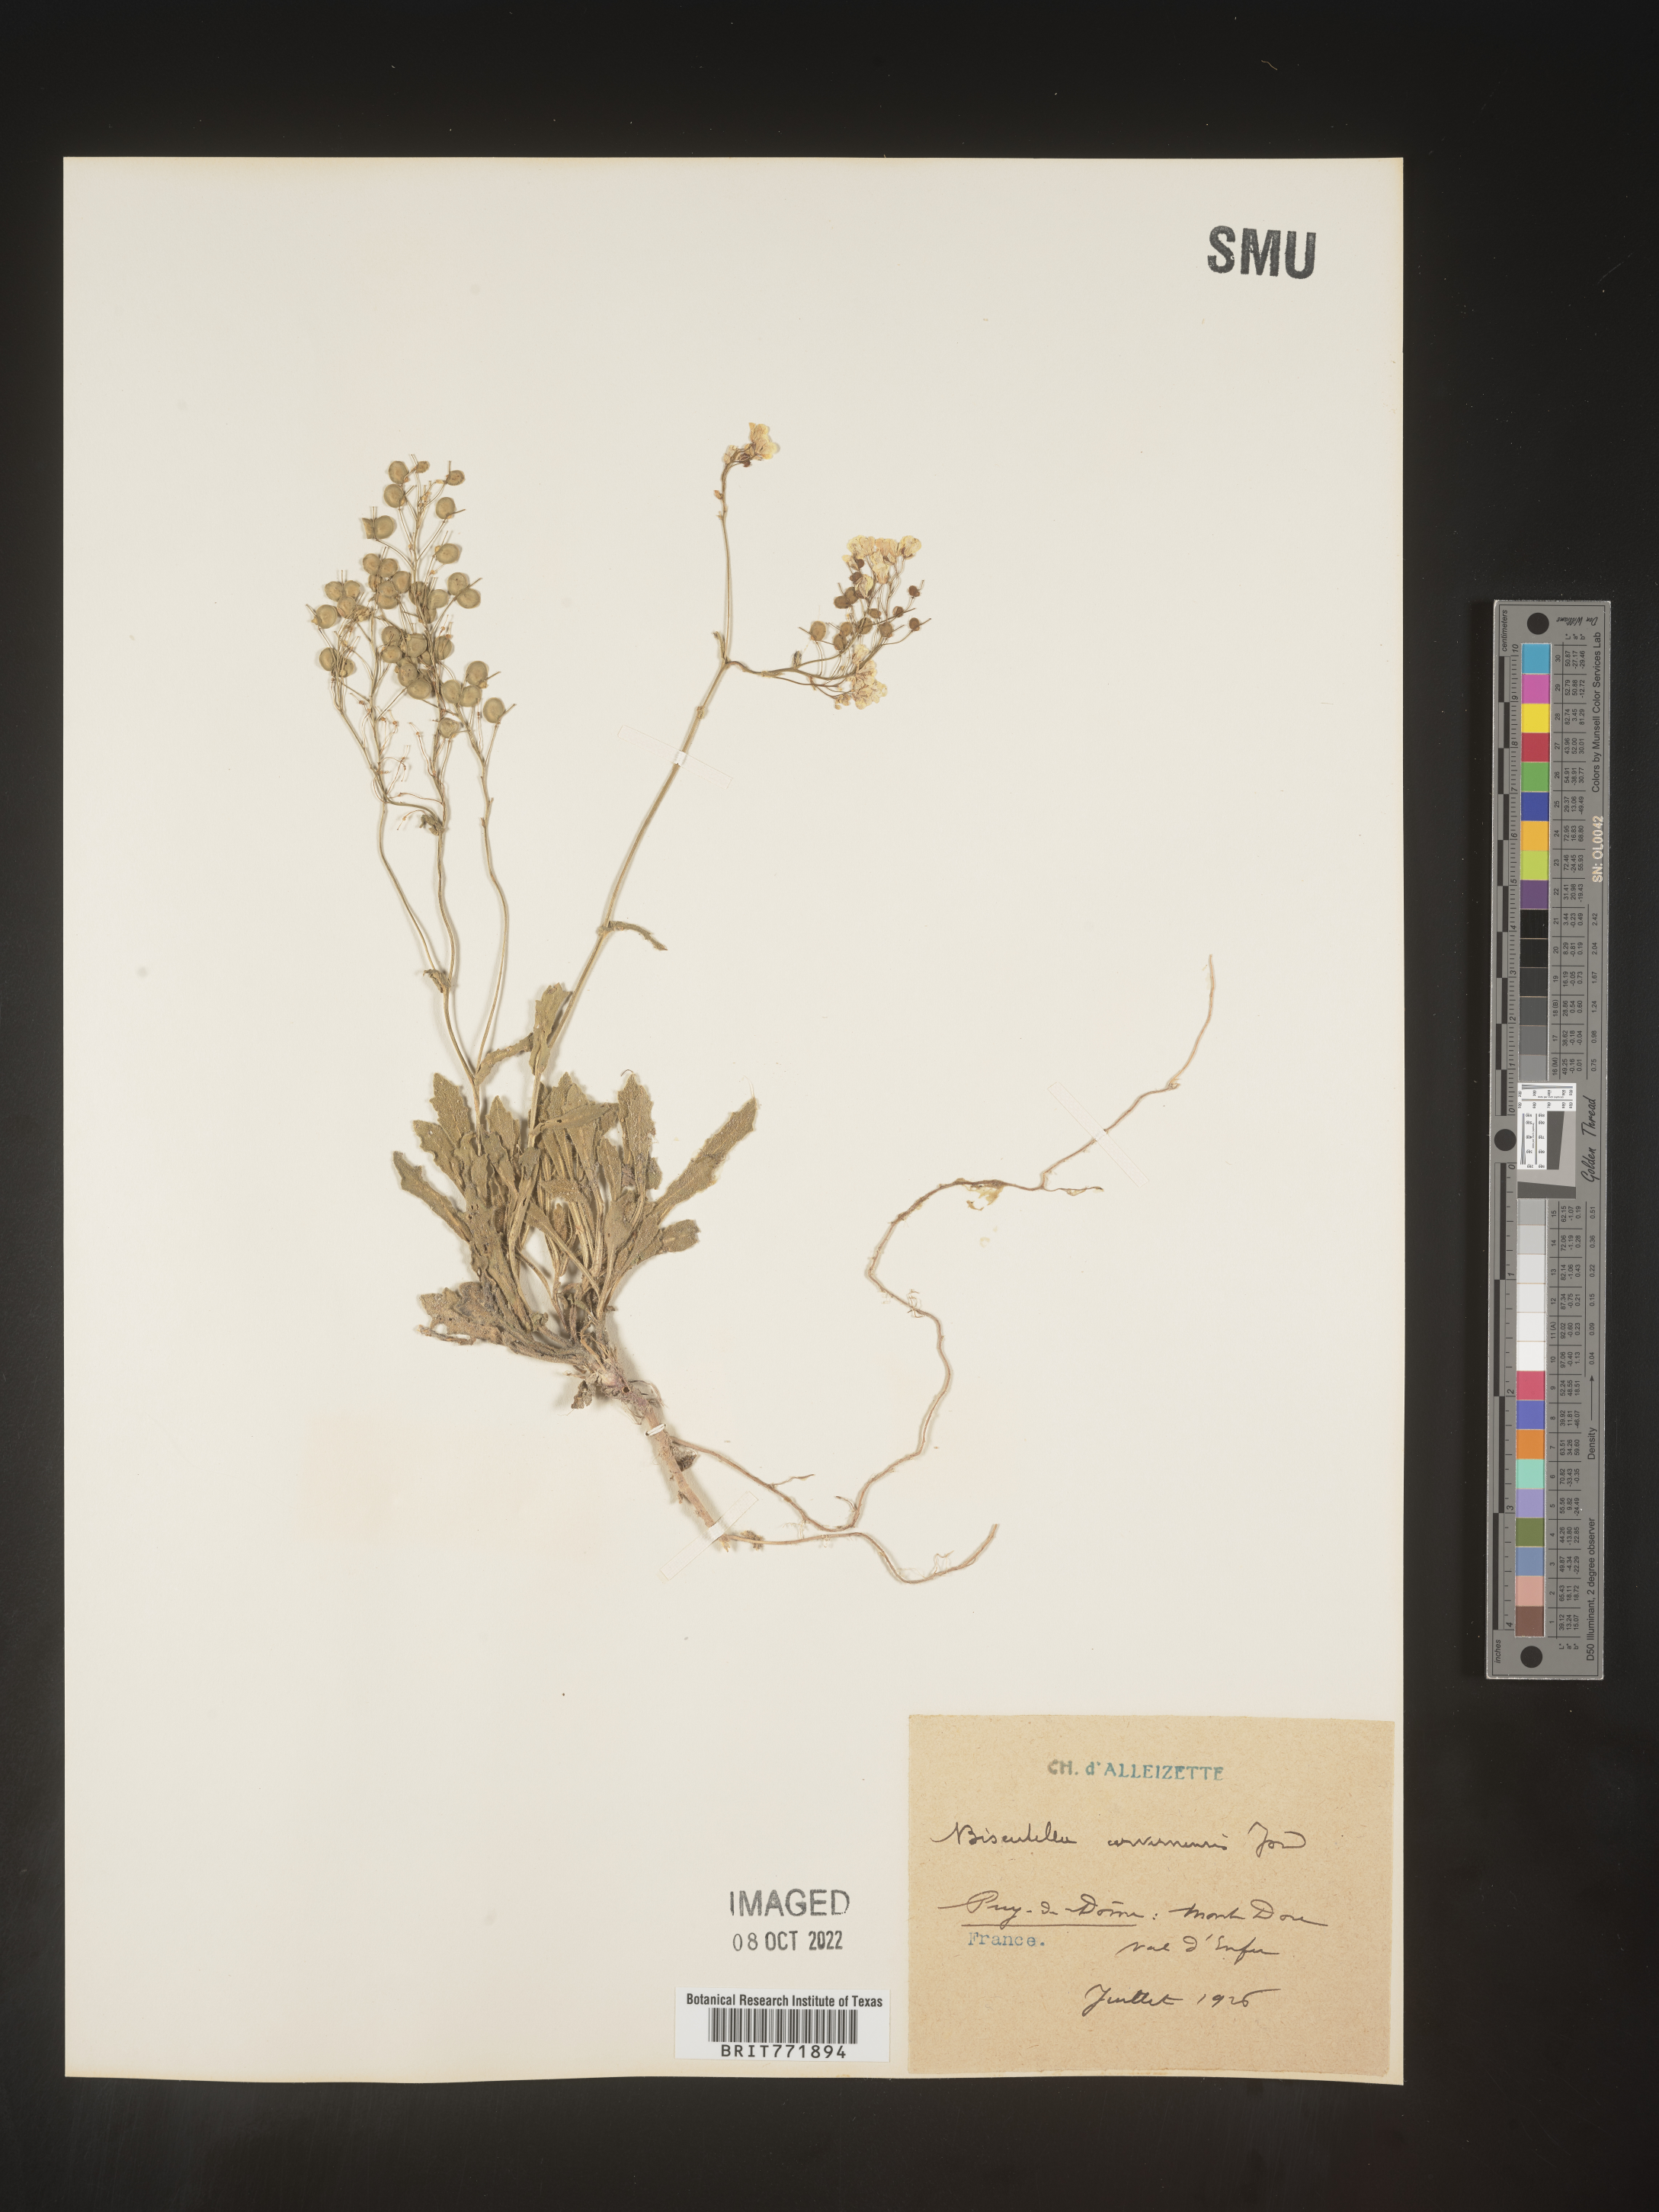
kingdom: Plantae
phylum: Tracheophyta
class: Magnoliopsida
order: Brassicales
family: Brassicaceae
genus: Biscutella
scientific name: Biscutella
